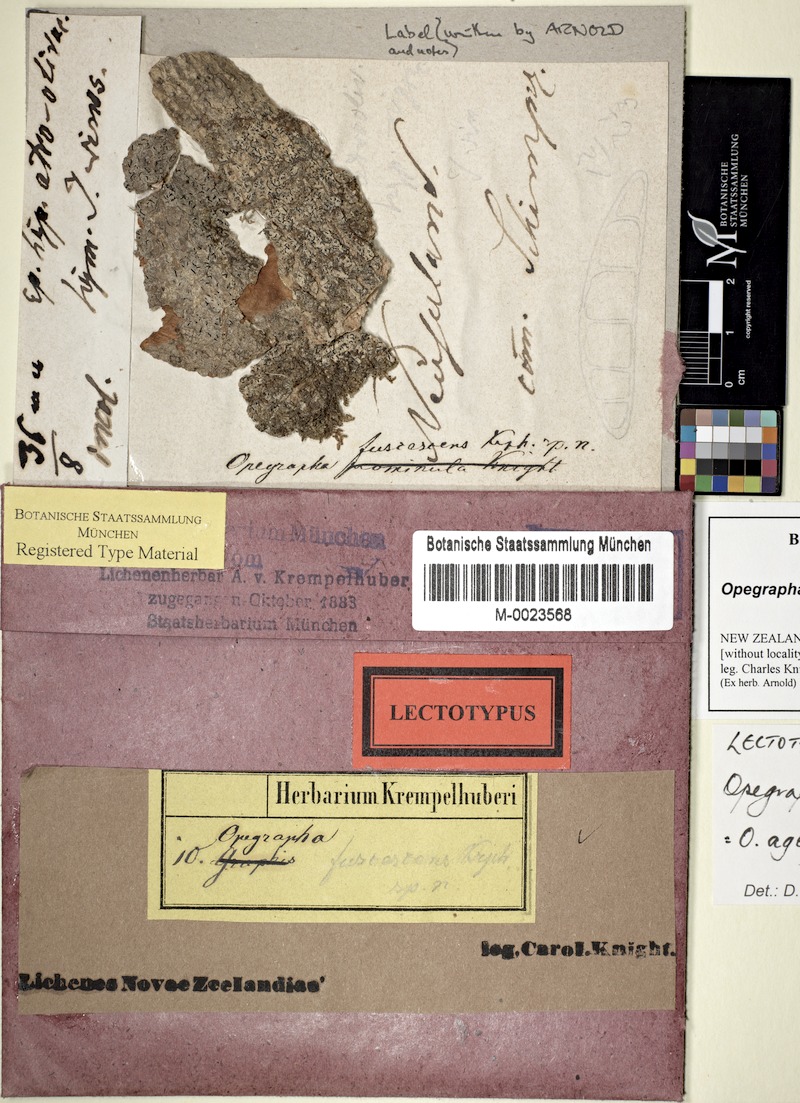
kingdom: Fungi
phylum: Ascomycota
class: Arthoniomycetes
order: Arthoniales
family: Opegraphaceae
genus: Opegrapha
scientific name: Opegrapha agelaeoides
